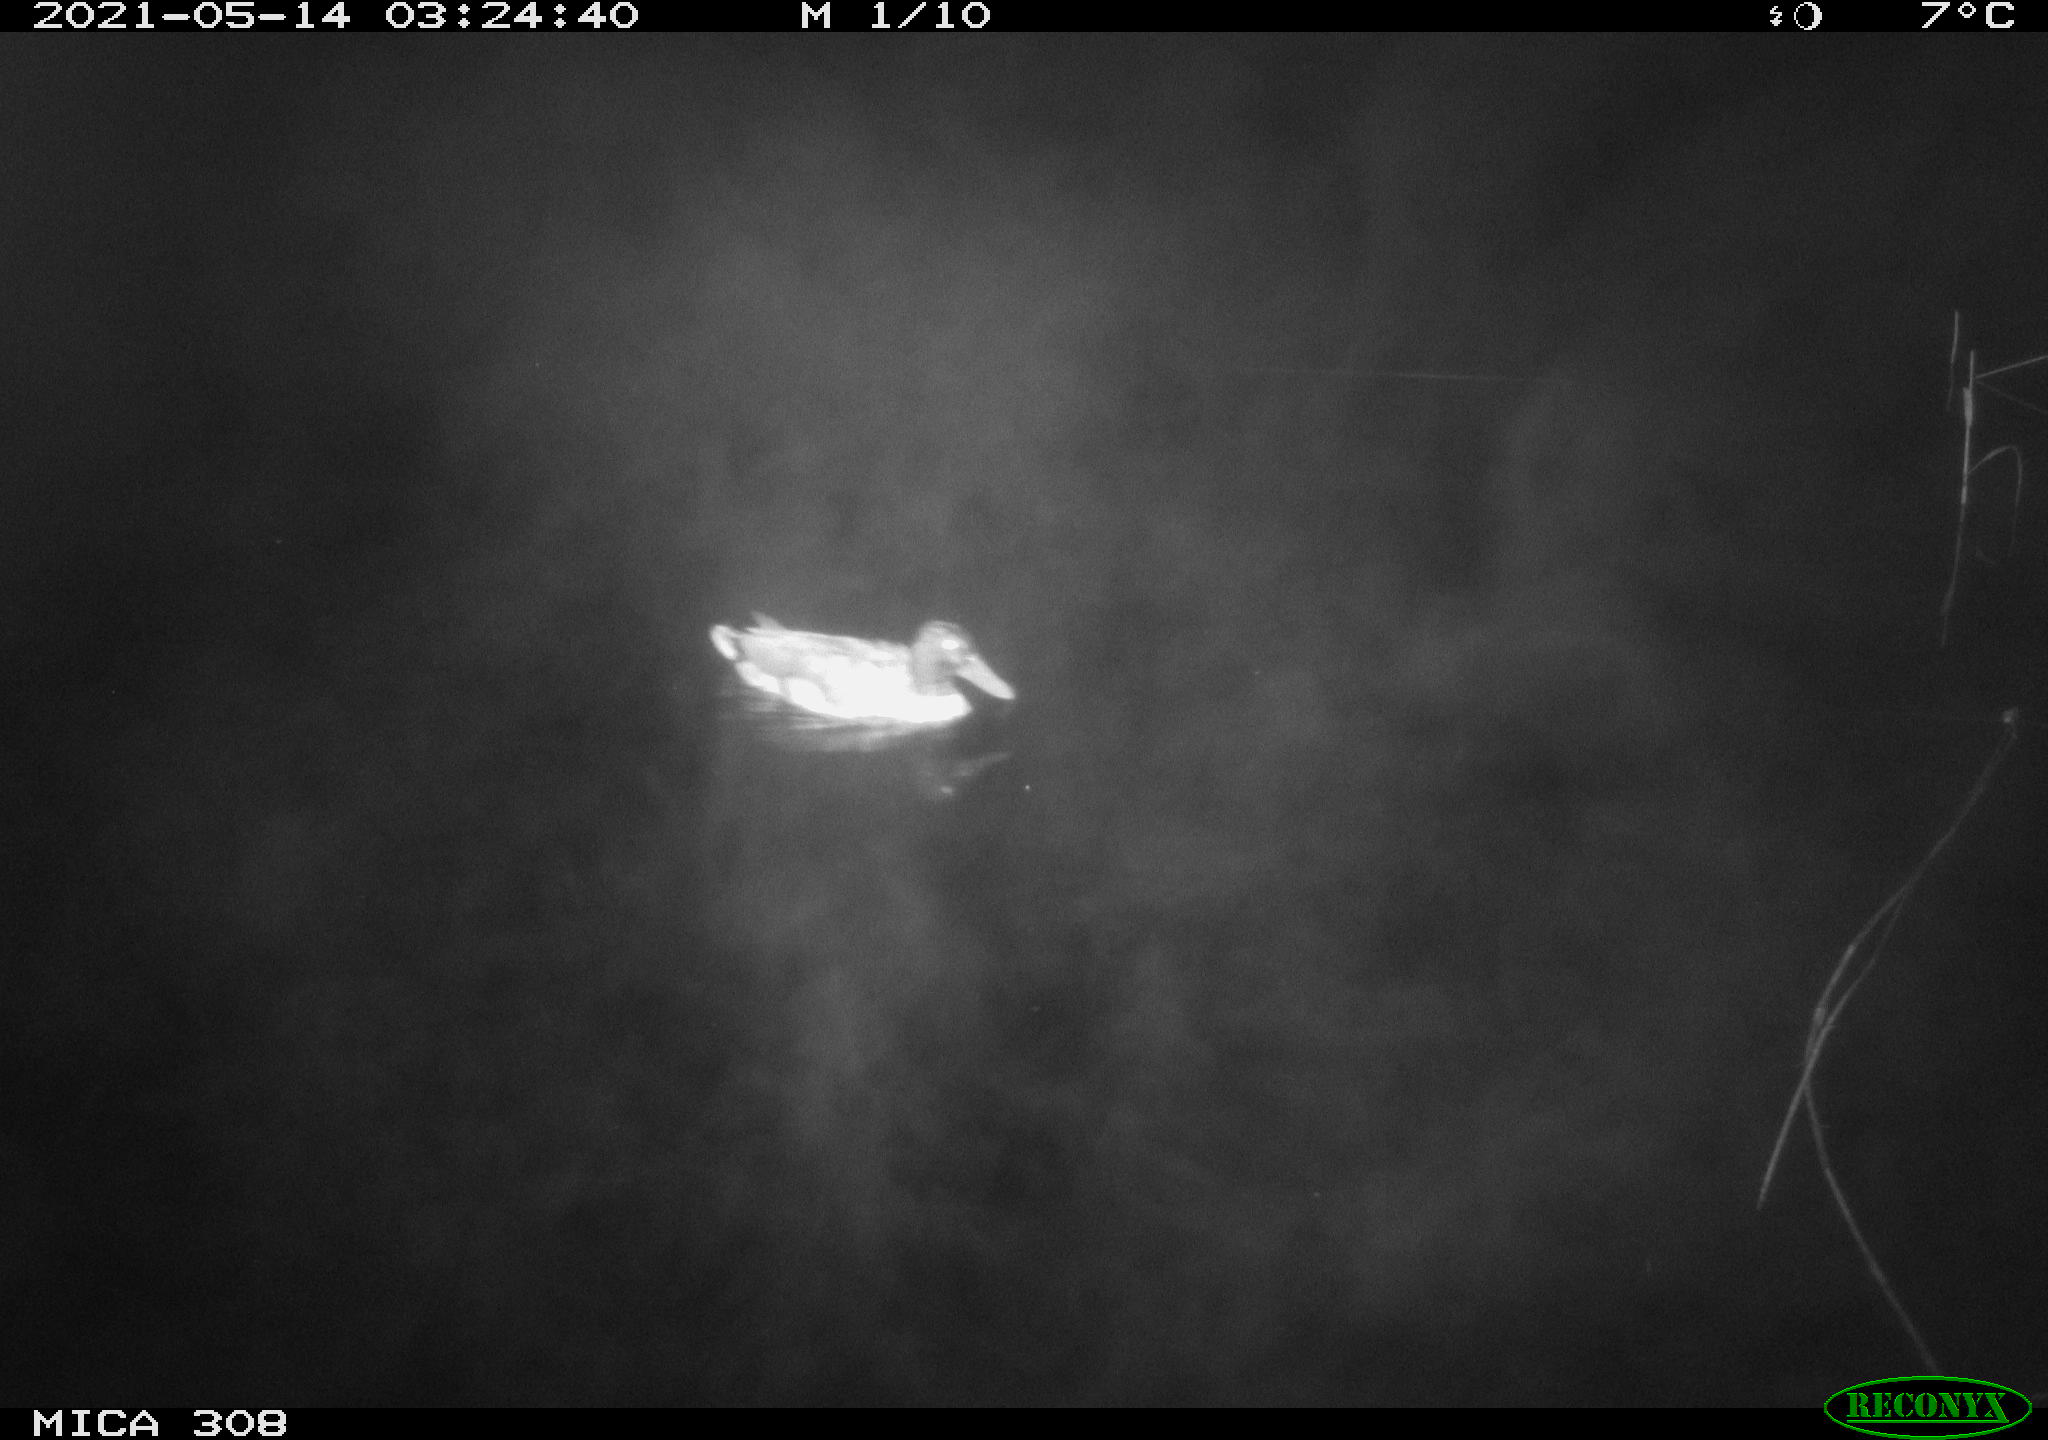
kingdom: Animalia
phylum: Chordata
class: Aves
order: Anseriformes
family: Anatidae
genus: Anas
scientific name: Anas platyrhynchos
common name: Mallard
